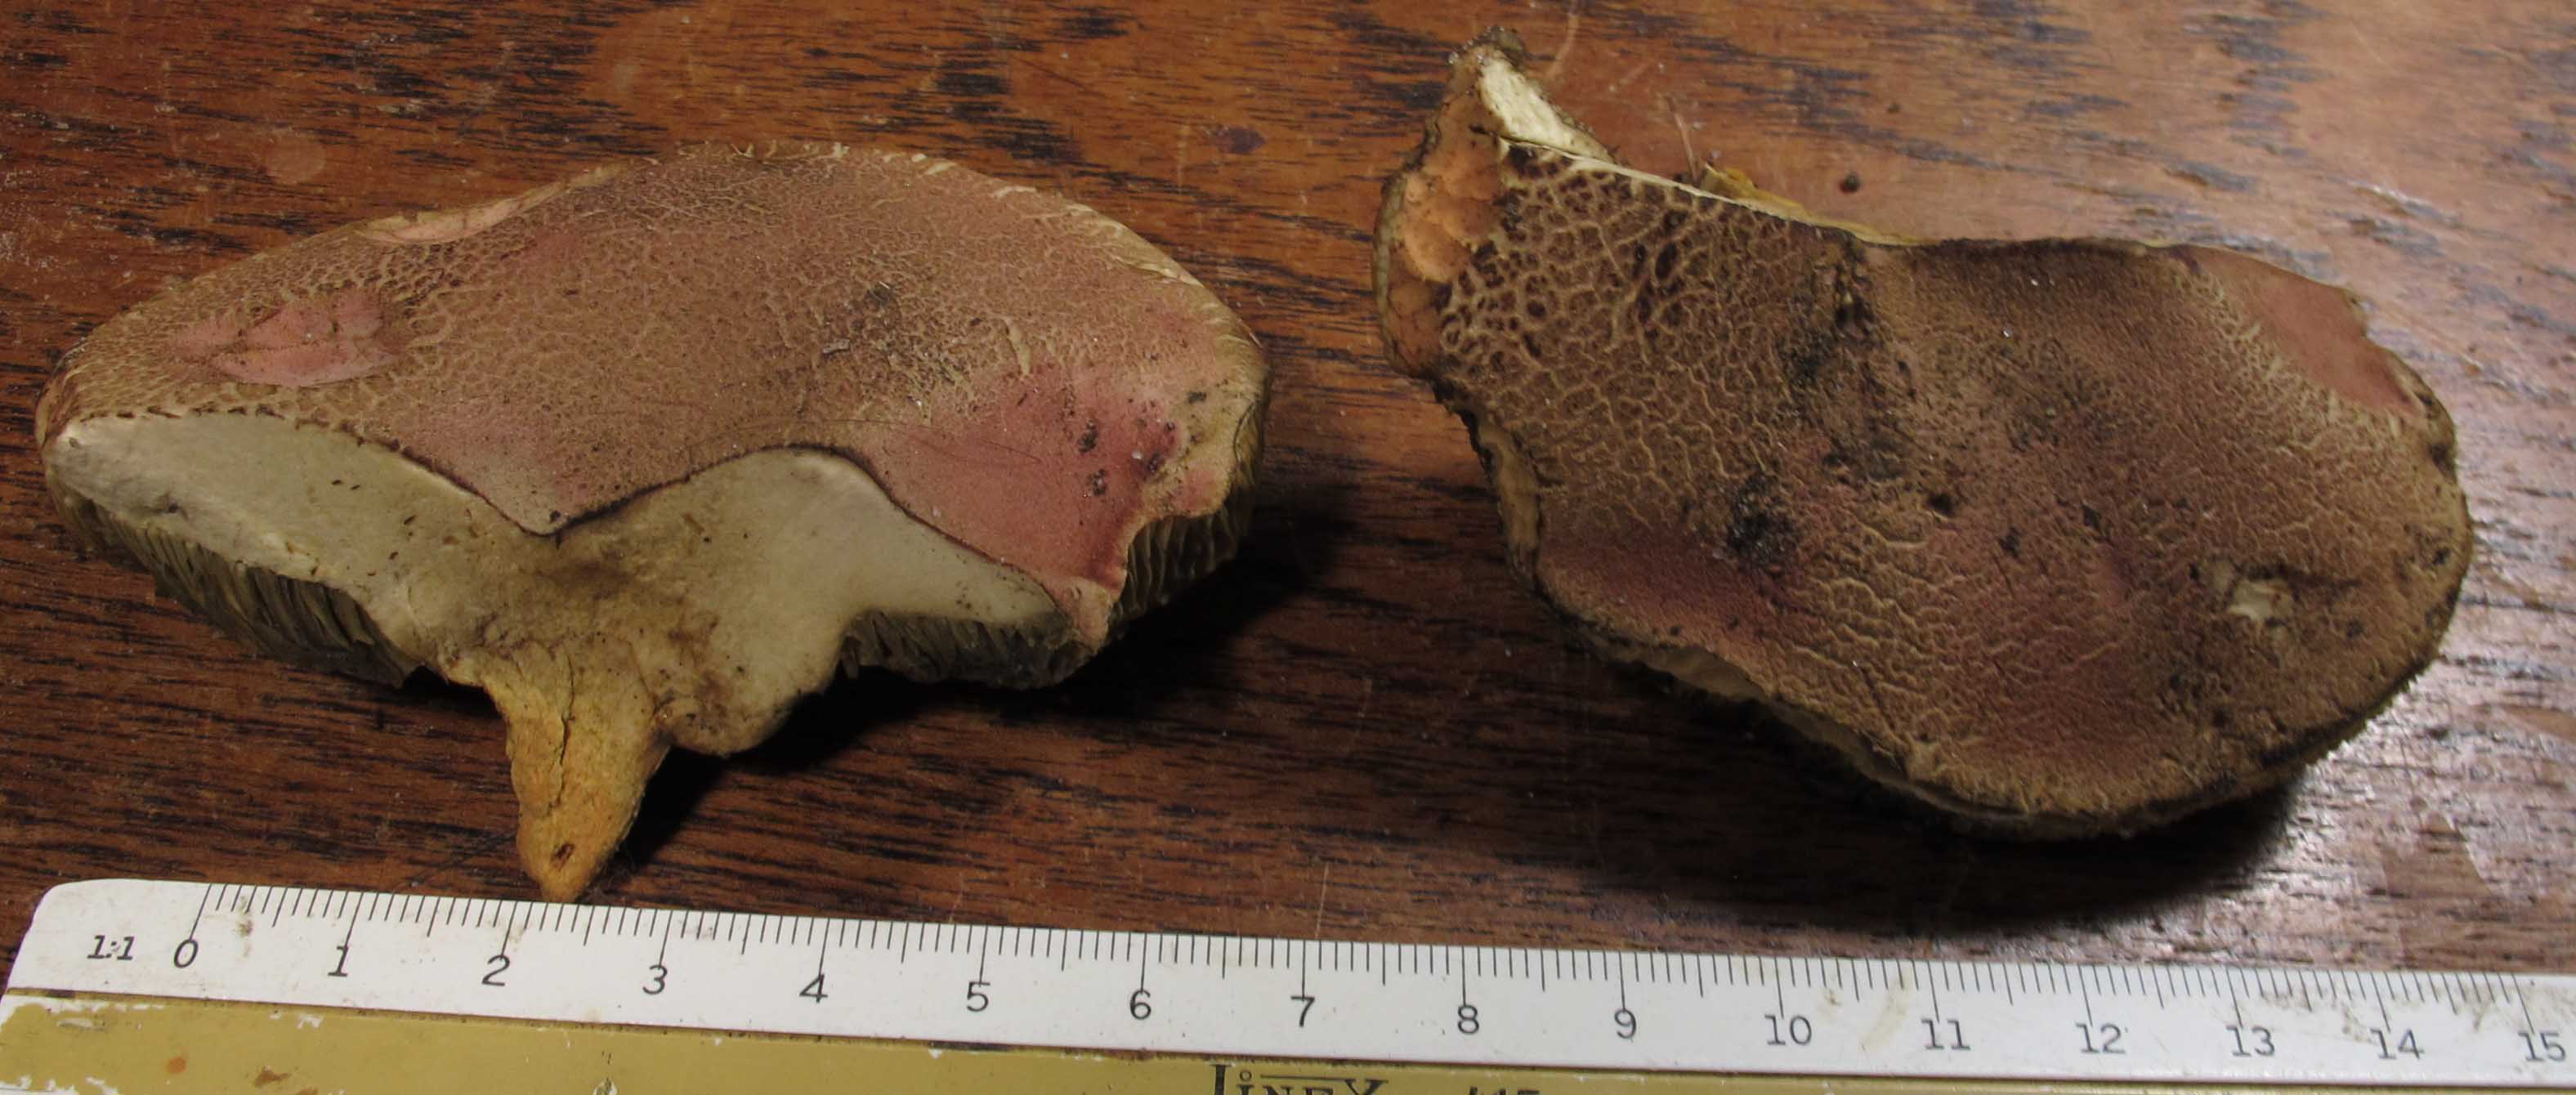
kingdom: Fungi
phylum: Basidiomycota
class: Agaricomycetes
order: Boletales
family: Boletaceae
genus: Hortiboletus
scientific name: Hortiboletus rubellus
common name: blodrød rørhat
